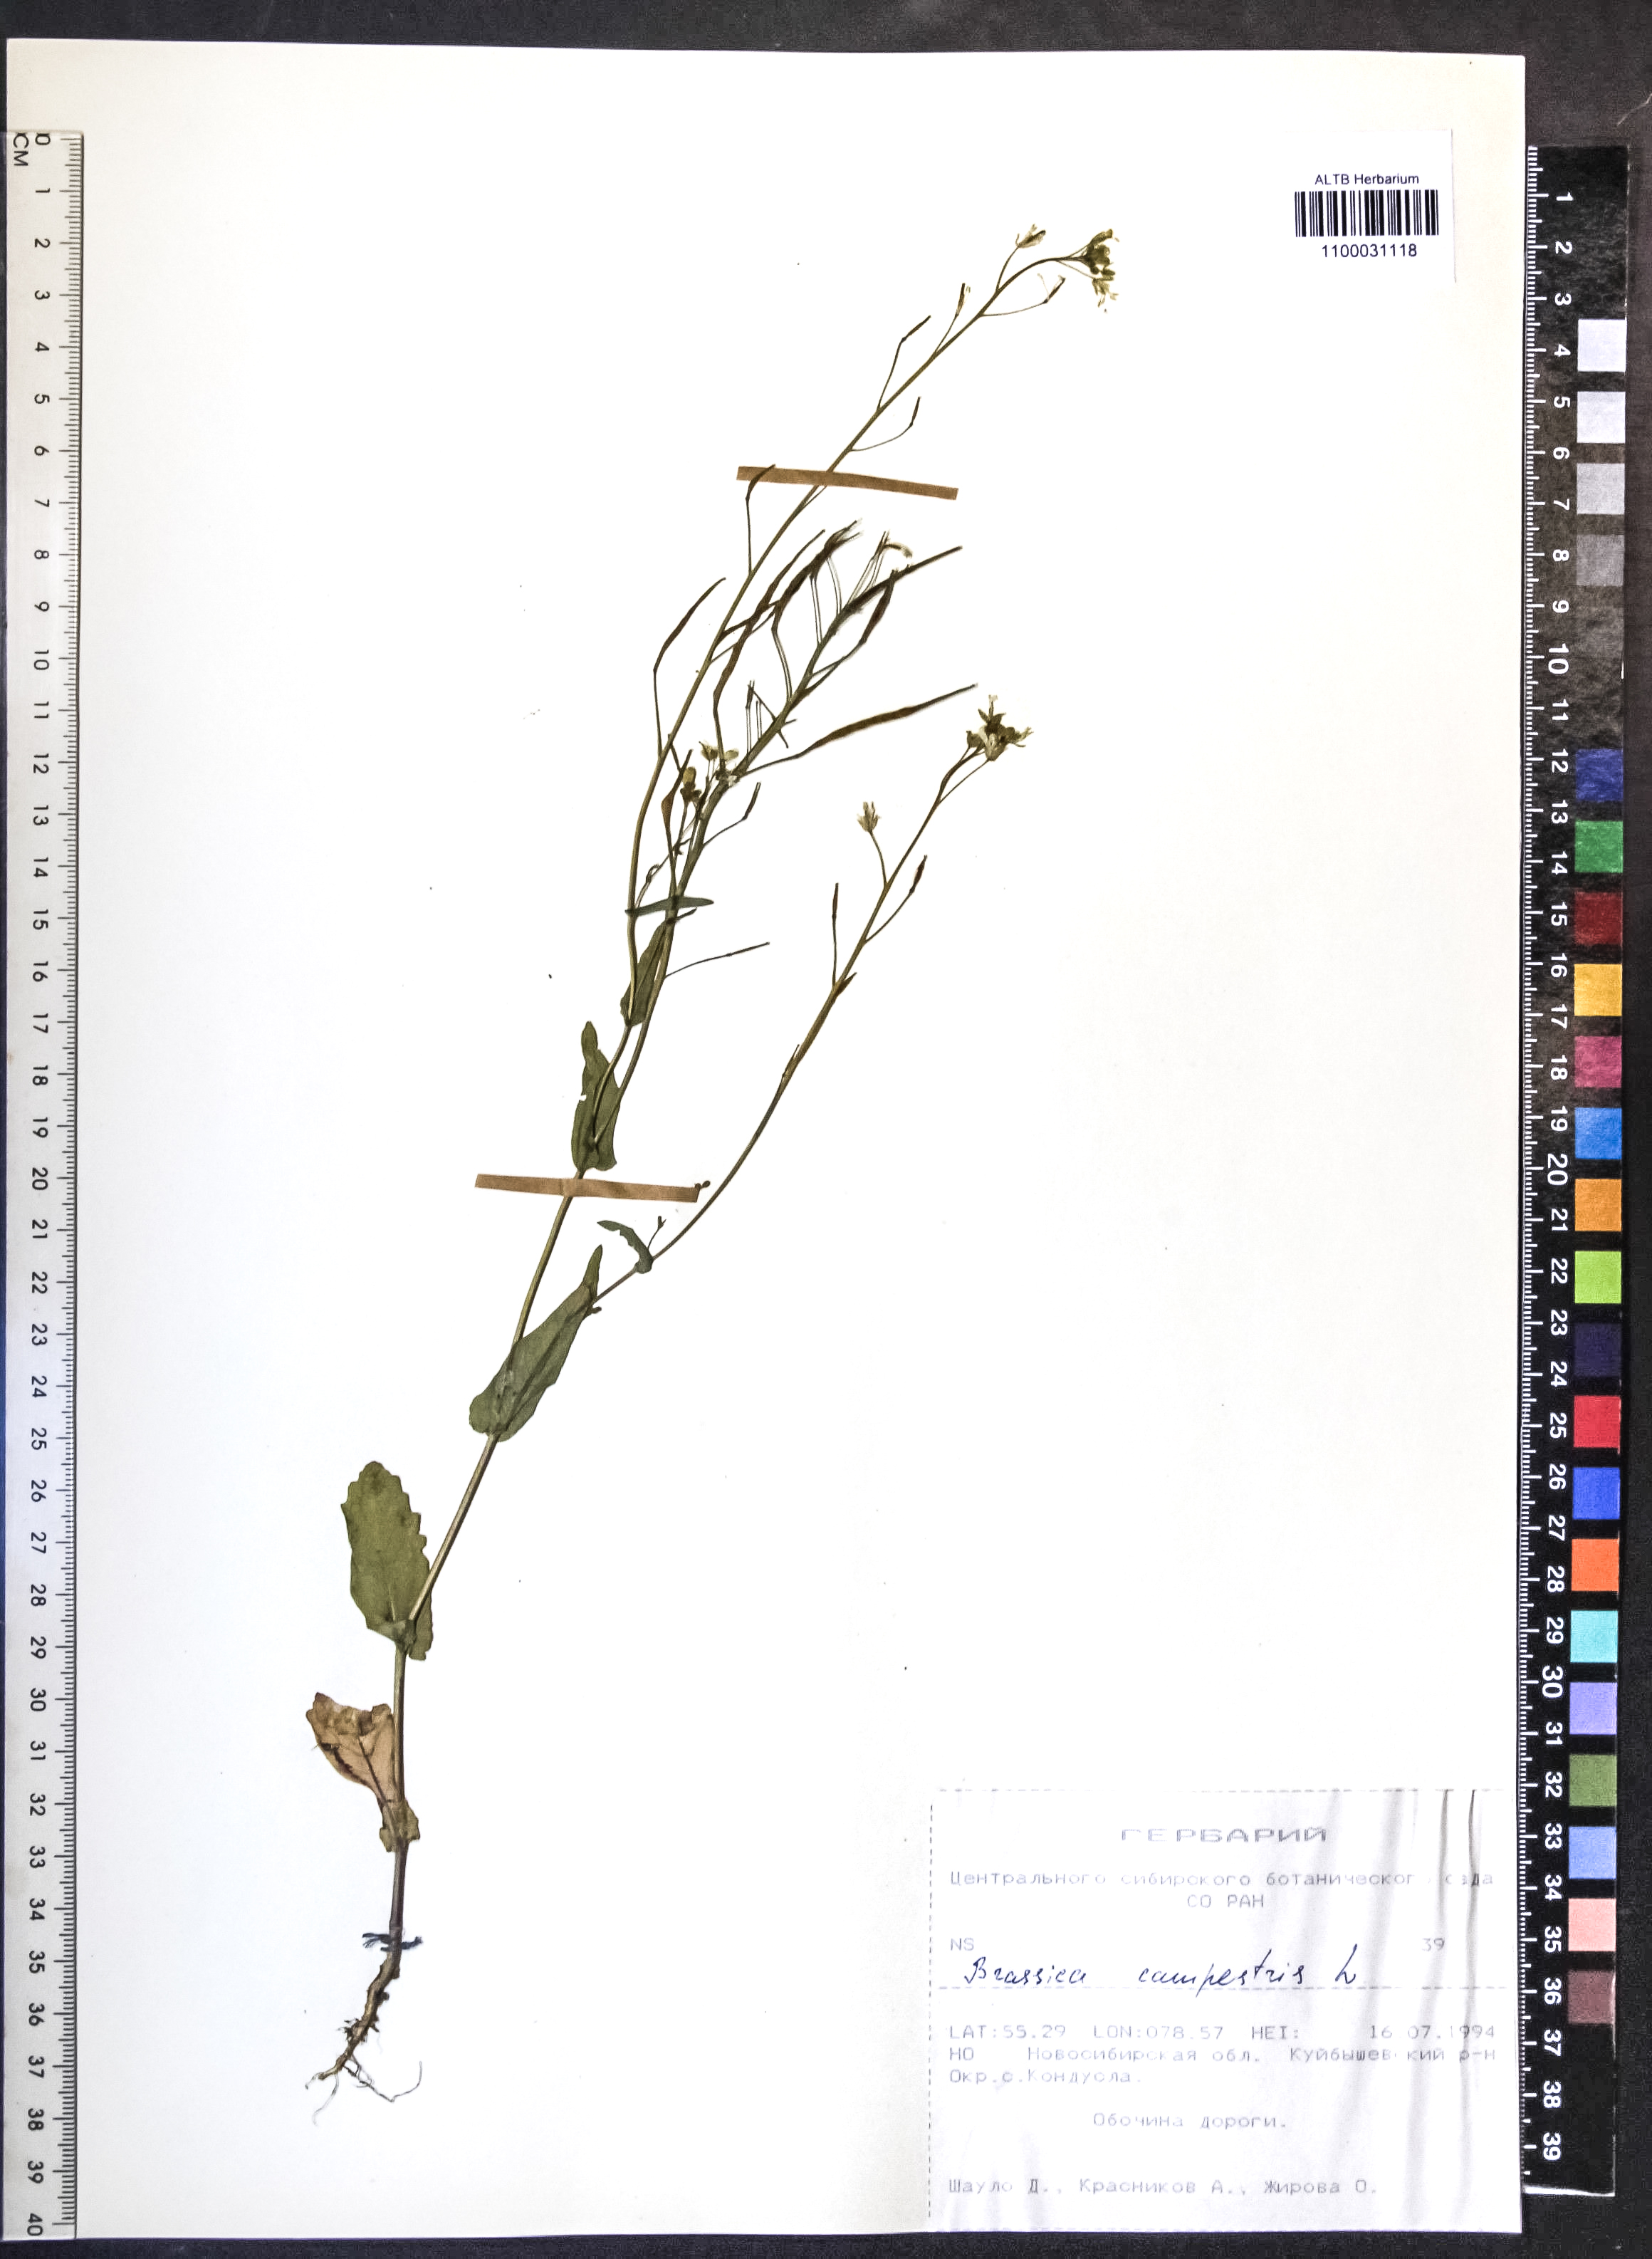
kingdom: Plantae
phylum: Tracheophyta
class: Magnoliopsida
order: Brassicales
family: Brassicaceae
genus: Brassica
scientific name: Brassica rapa
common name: Field mustard
